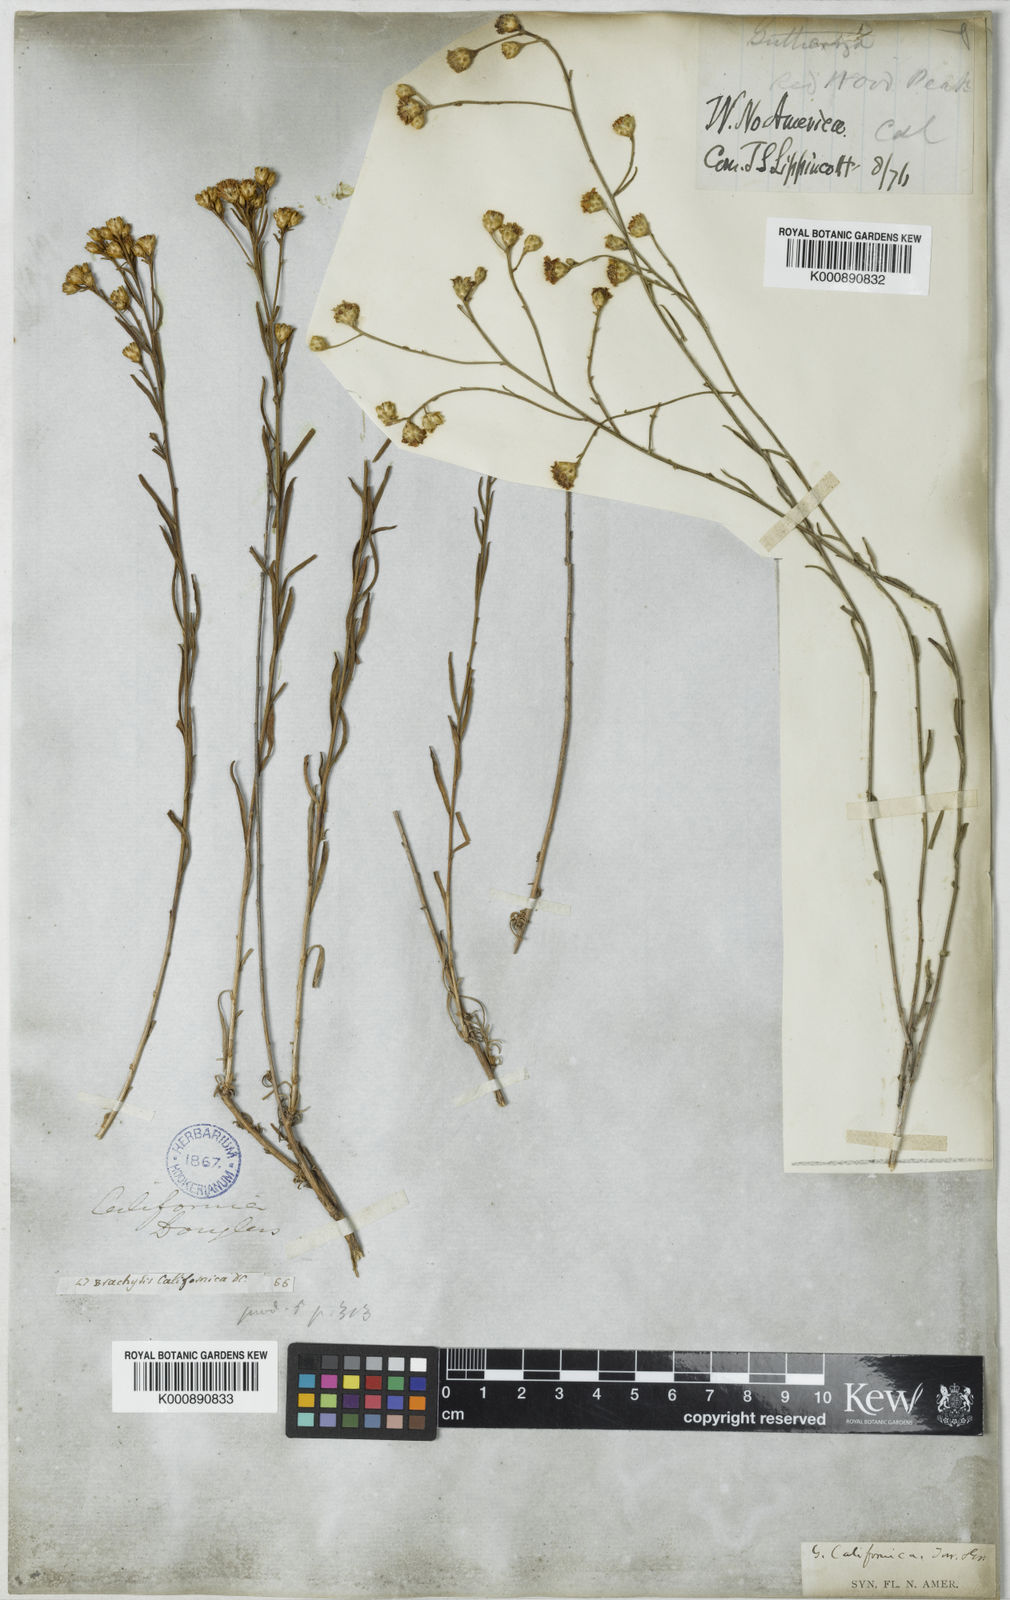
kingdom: Plantae
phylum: Tracheophyta
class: Magnoliopsida
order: Asterales
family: Asteraceae
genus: Gutierrezia
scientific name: Gutierrezia californica
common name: California matchweed
